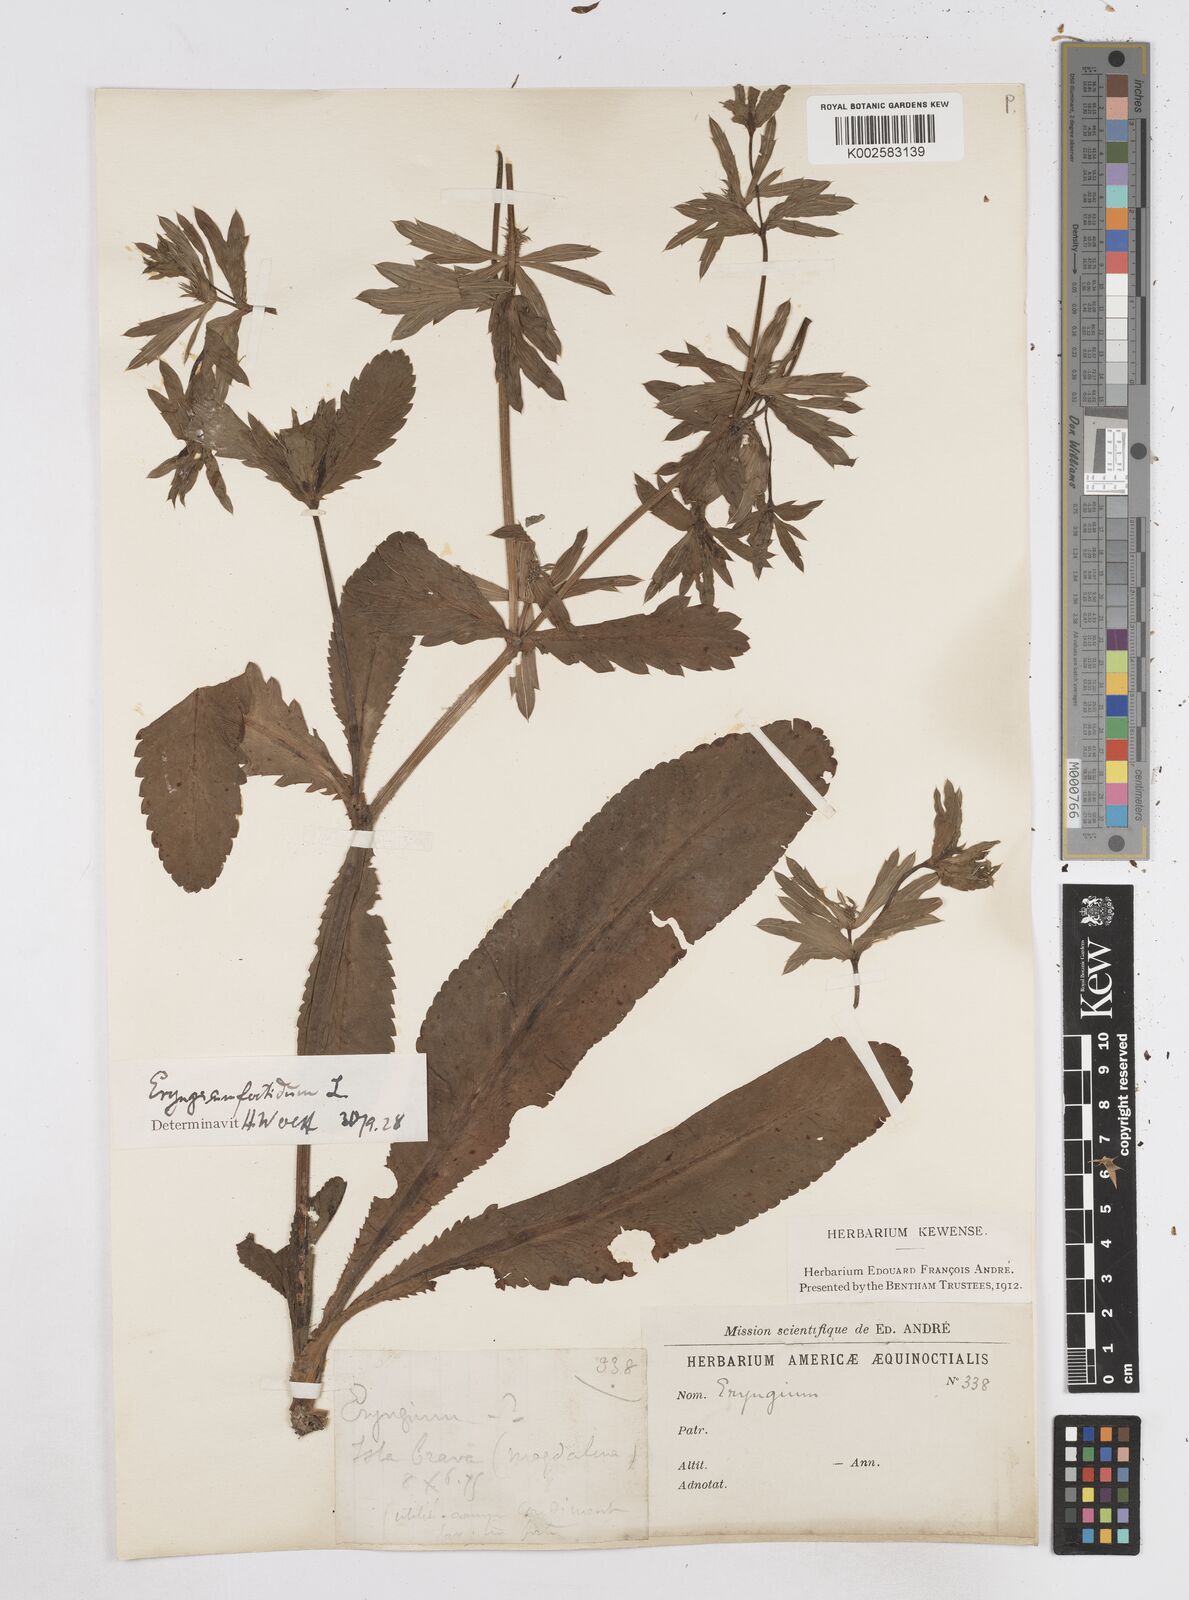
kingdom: Plantae
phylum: Tracheophyta
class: Magnoliopsida
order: Apiales
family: Apiaceae
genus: Eryngium
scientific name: Eryngium foetidum
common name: Fitweed
